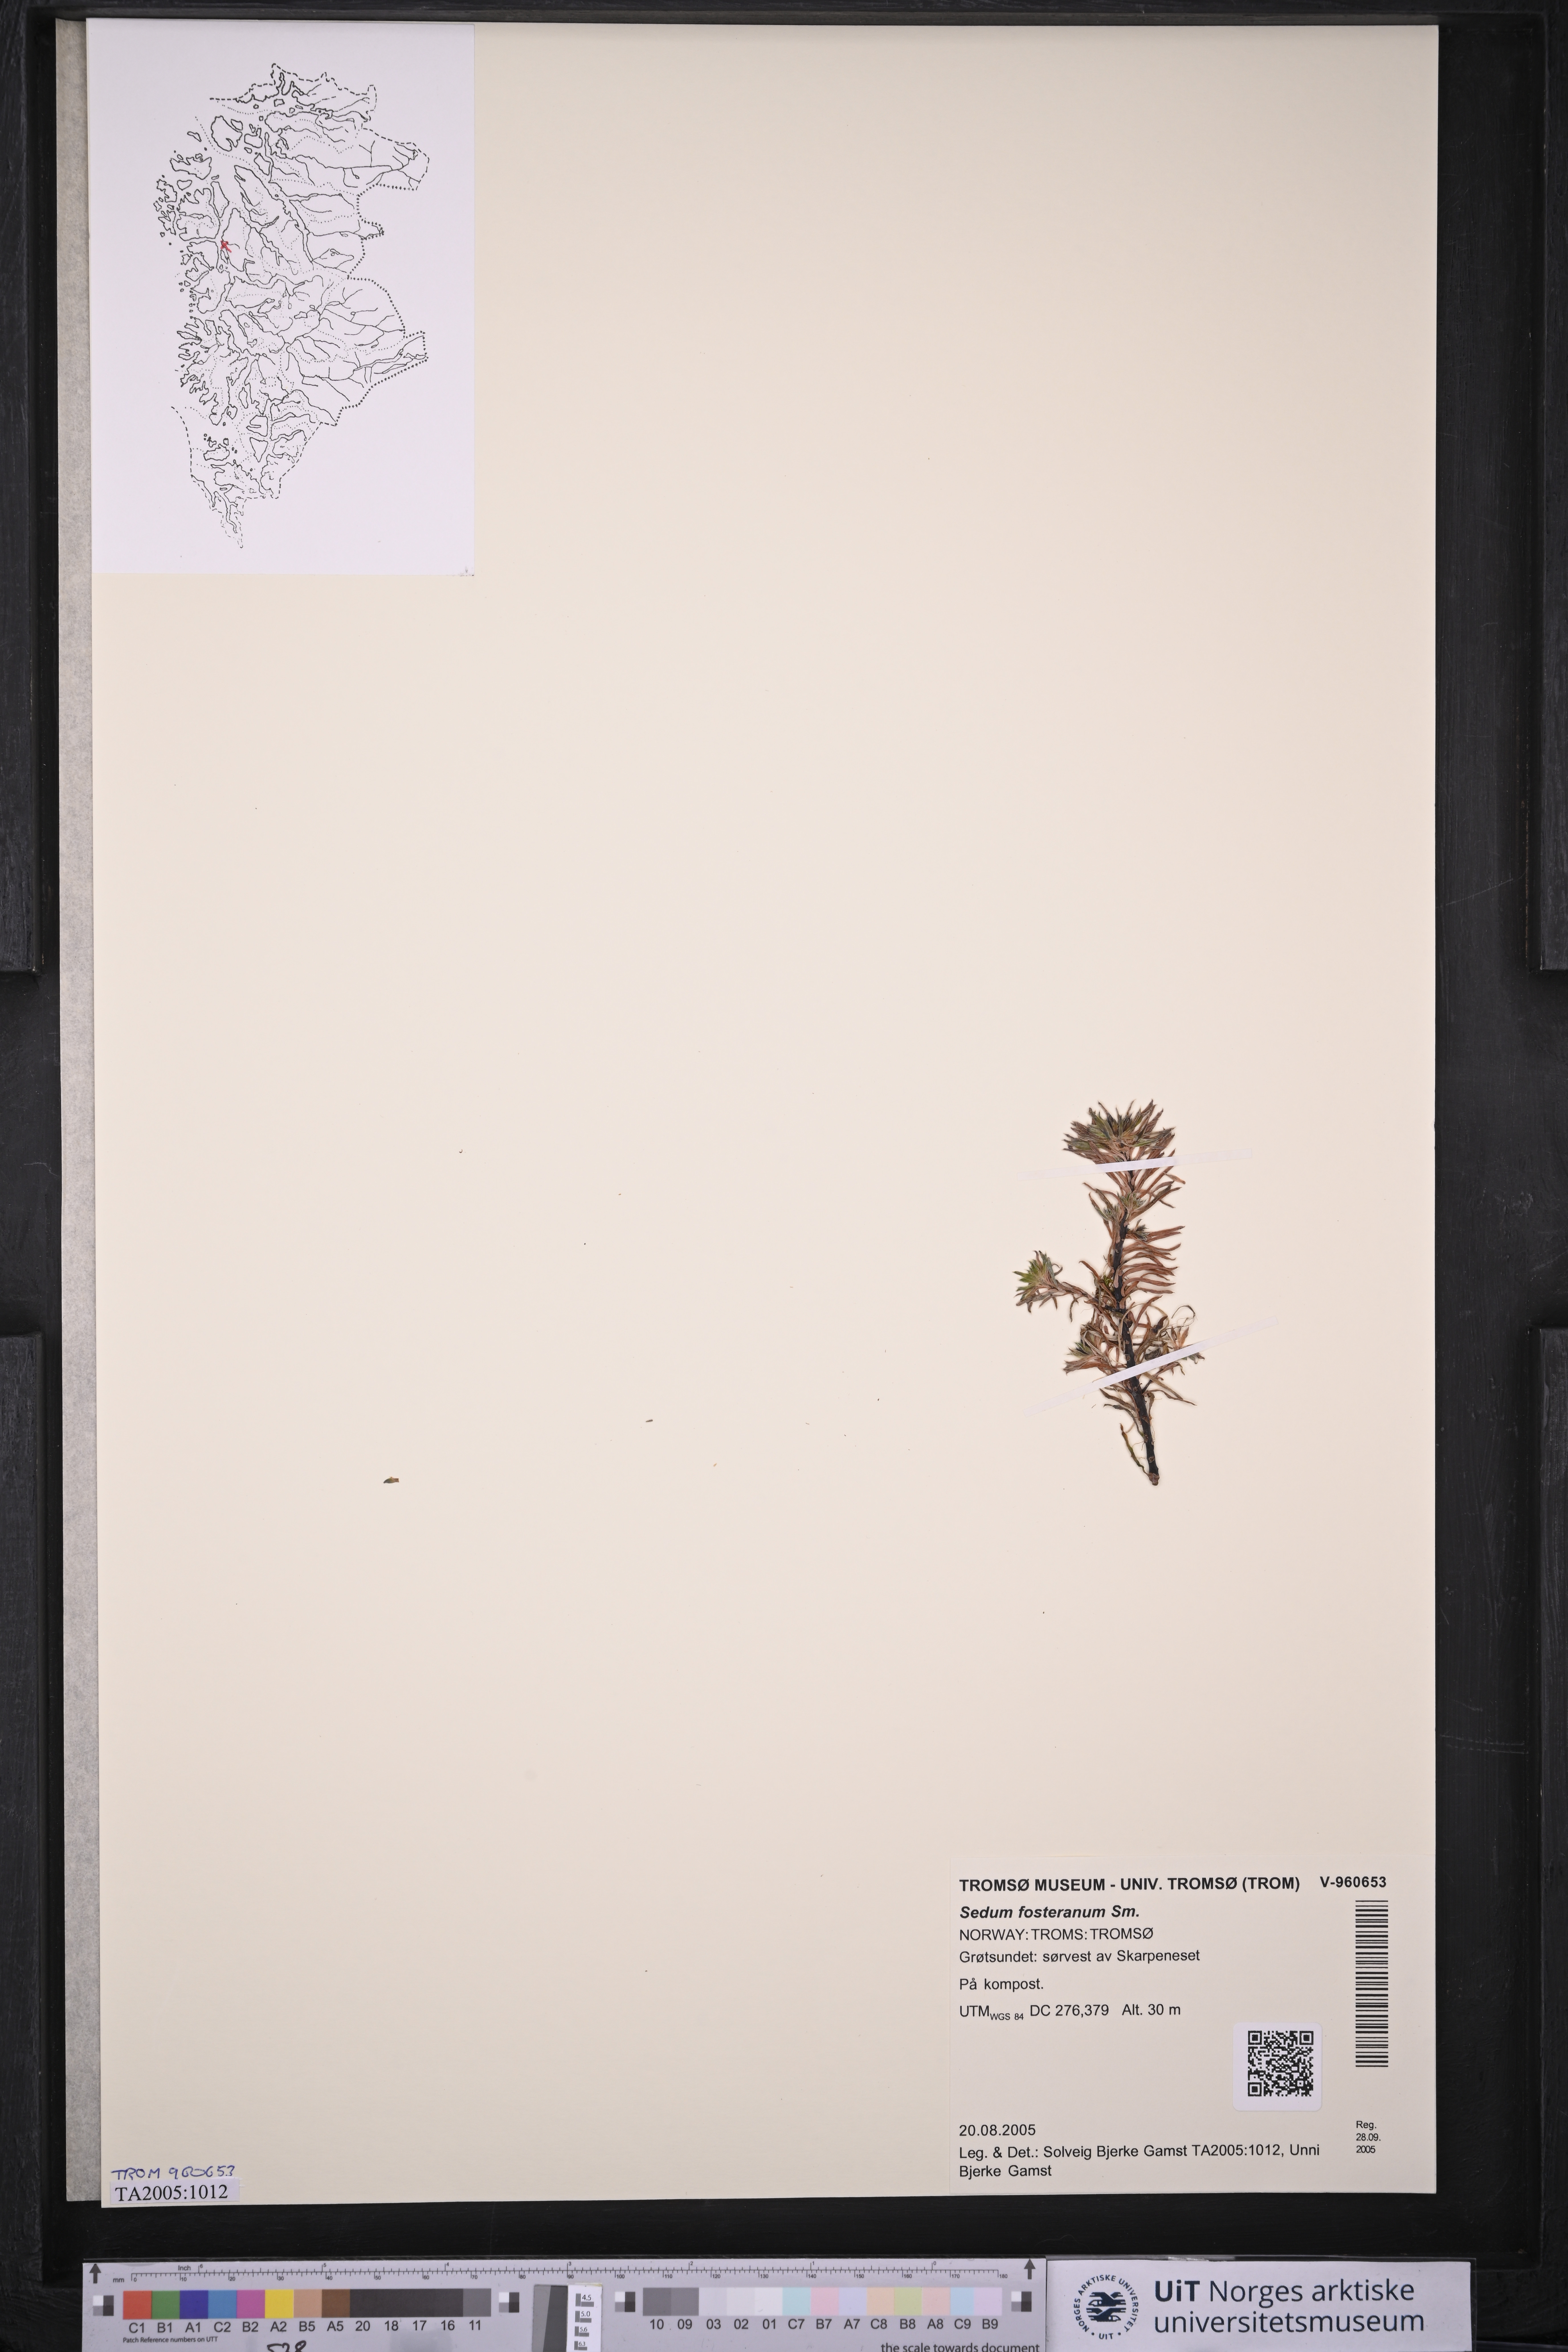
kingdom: Plantae
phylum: Tracheophyta
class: Magnoliopsida
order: Saxifragales
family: Crassulaceae
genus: Petrosedum
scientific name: Petrosedum forsterianum
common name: Forster's stonecrop
